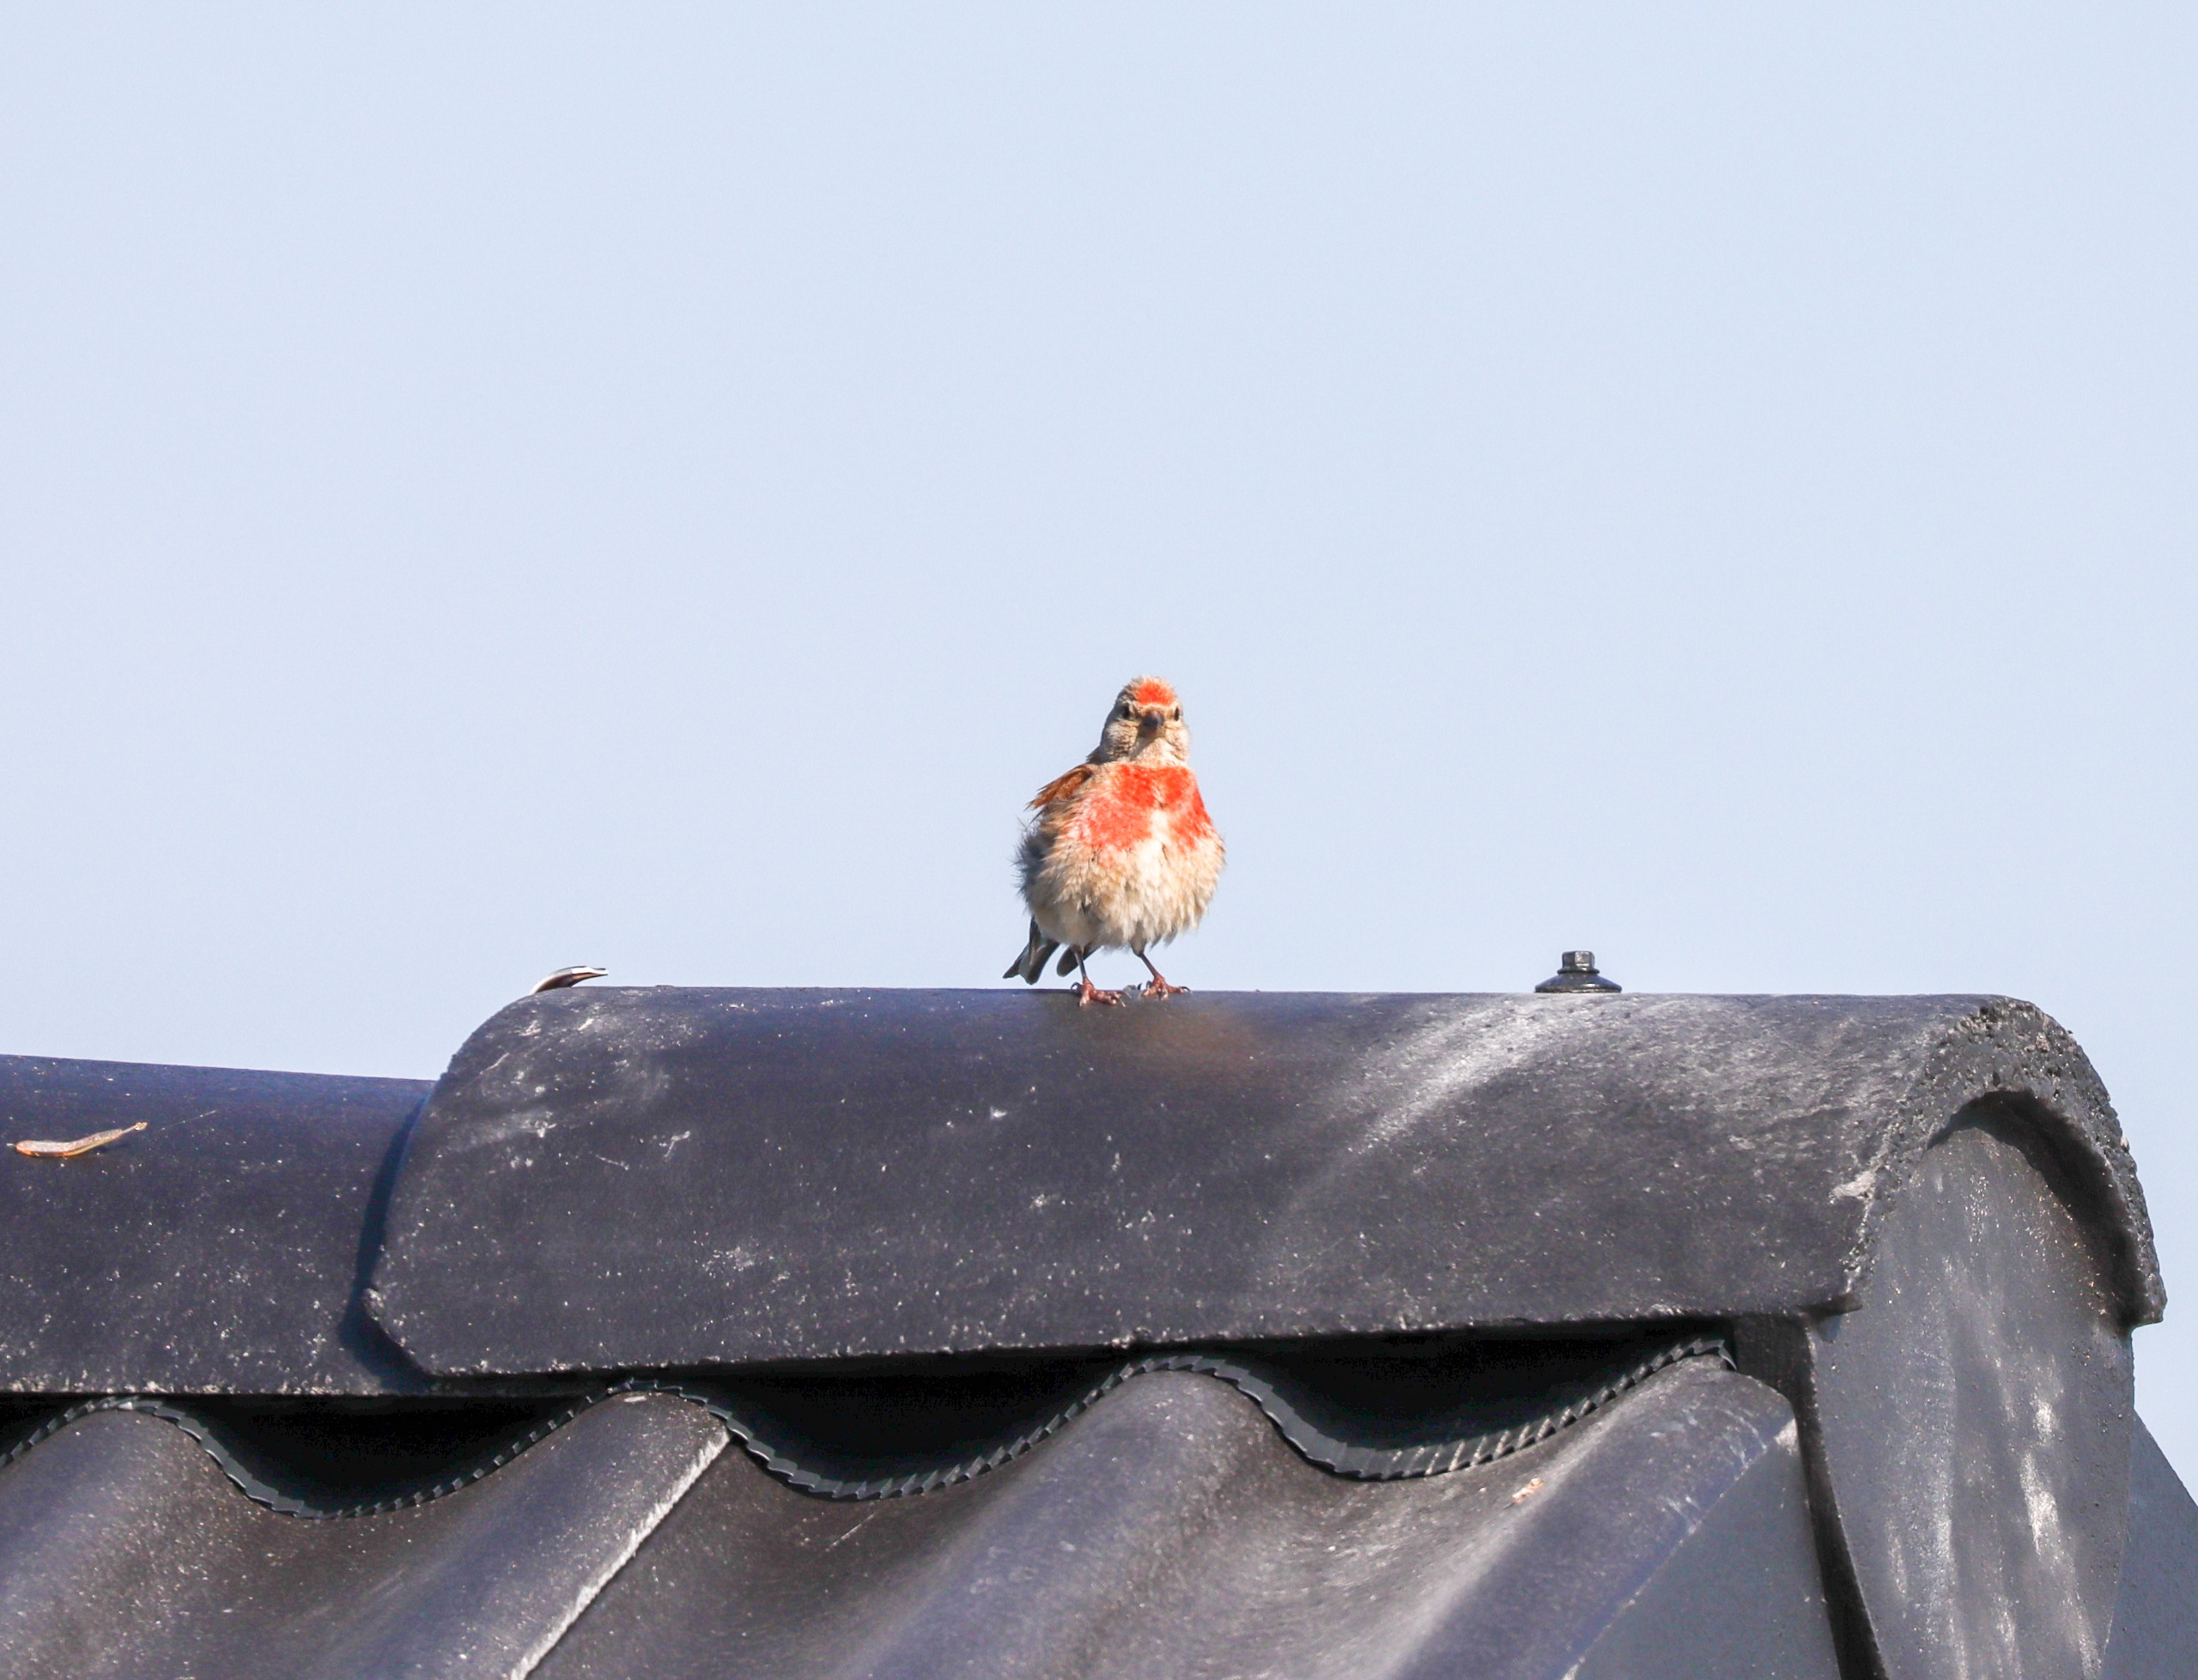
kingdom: Animalia
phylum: Chordata
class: Aves
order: Passeriformes
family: Fringillidae
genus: Linaria
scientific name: Linaria cannabina
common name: Tornirisk
